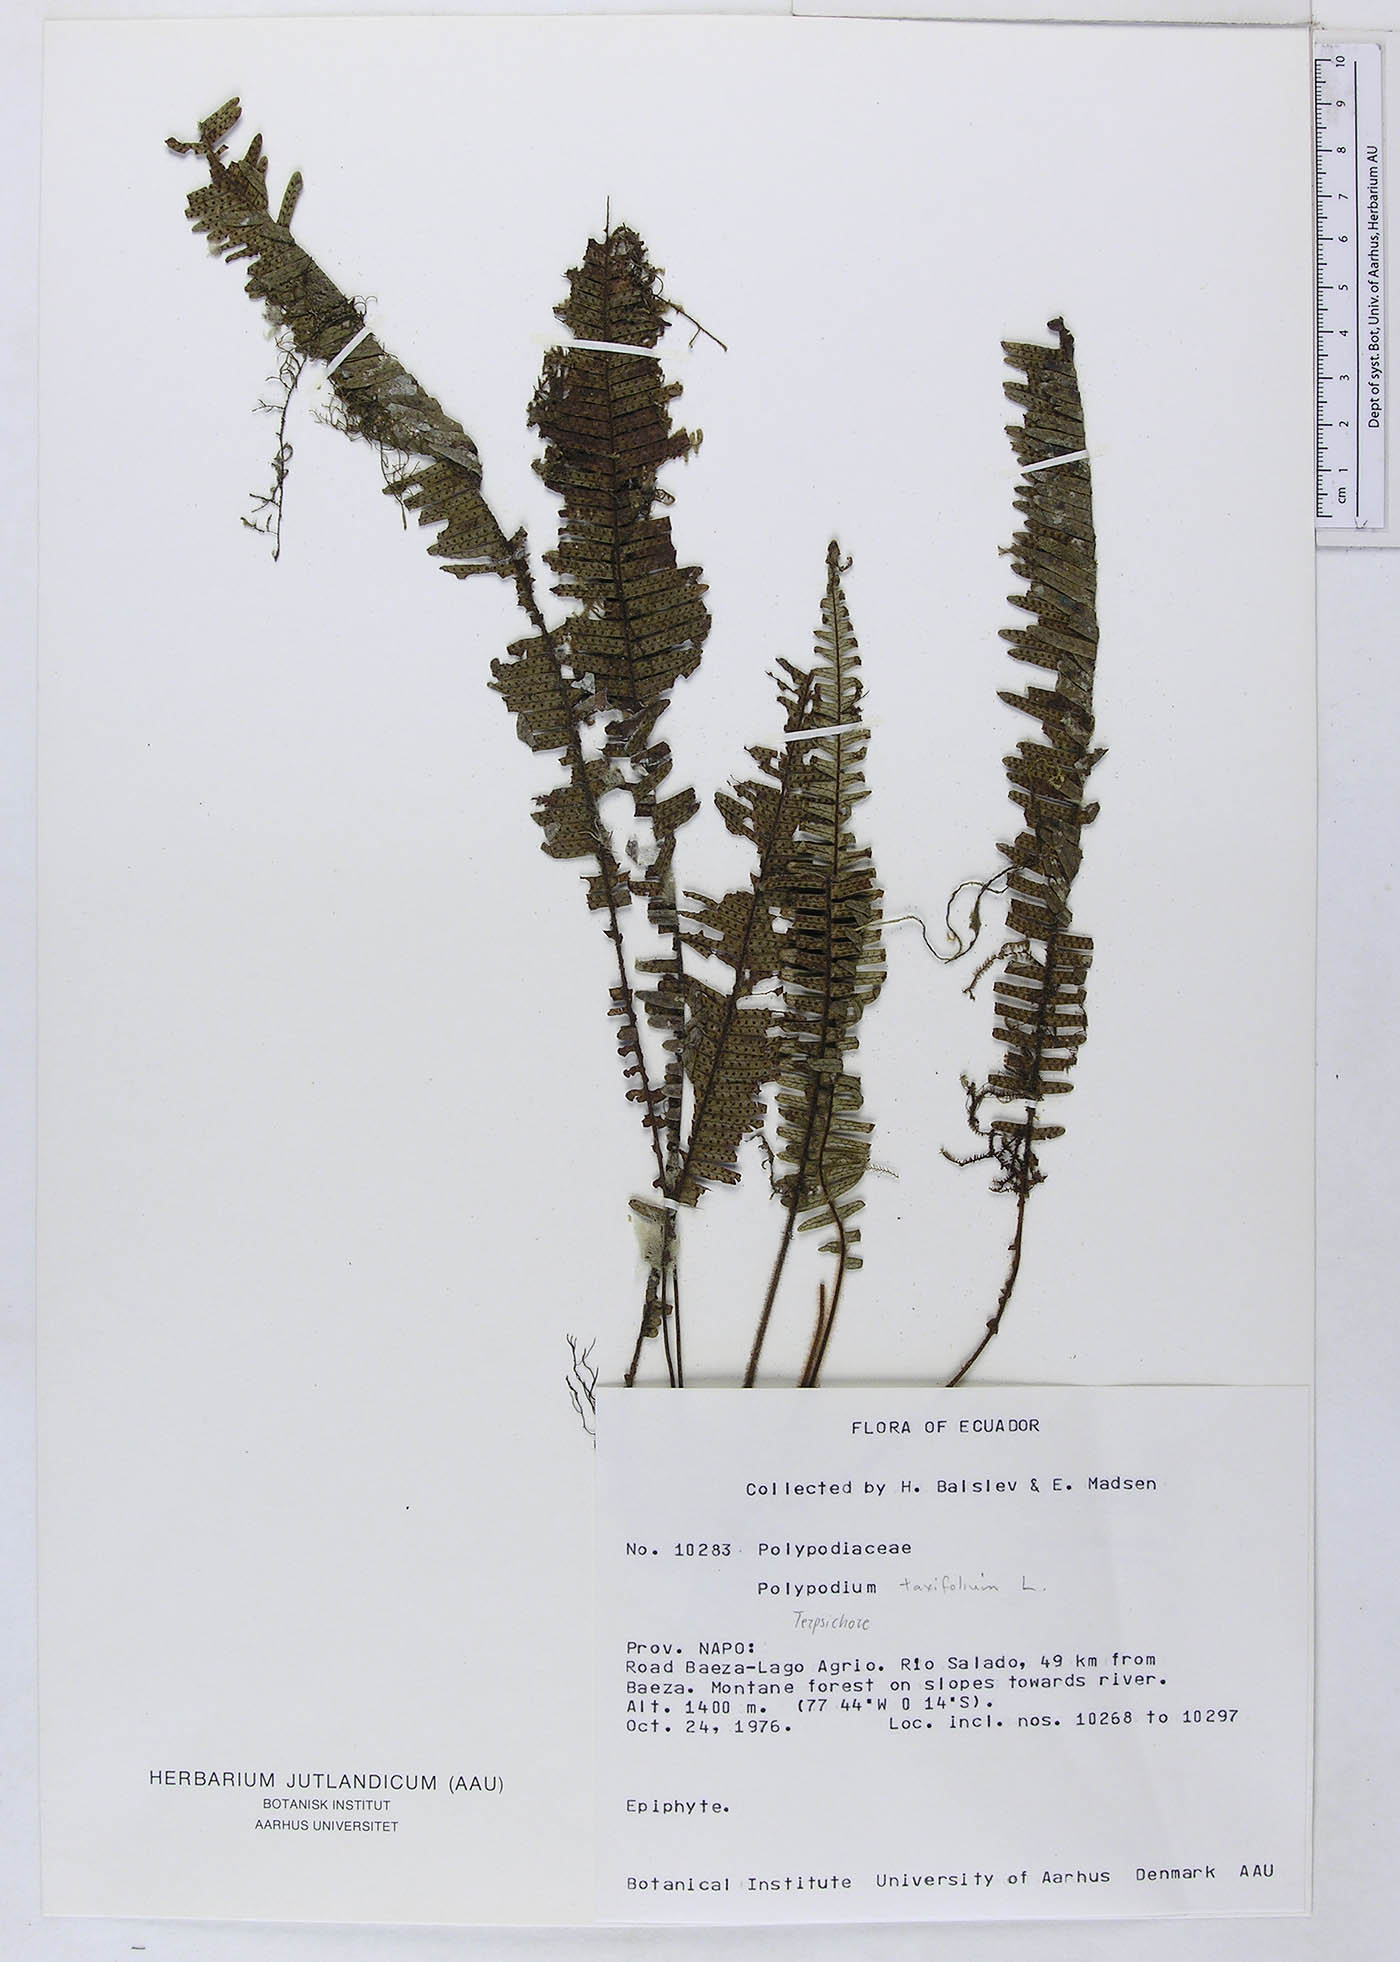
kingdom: Plantae
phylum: Tracheophyta
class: Polypodiopsida
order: Polypodiales
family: Polypodiaceae
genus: Polypodium
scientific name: Polypodium
